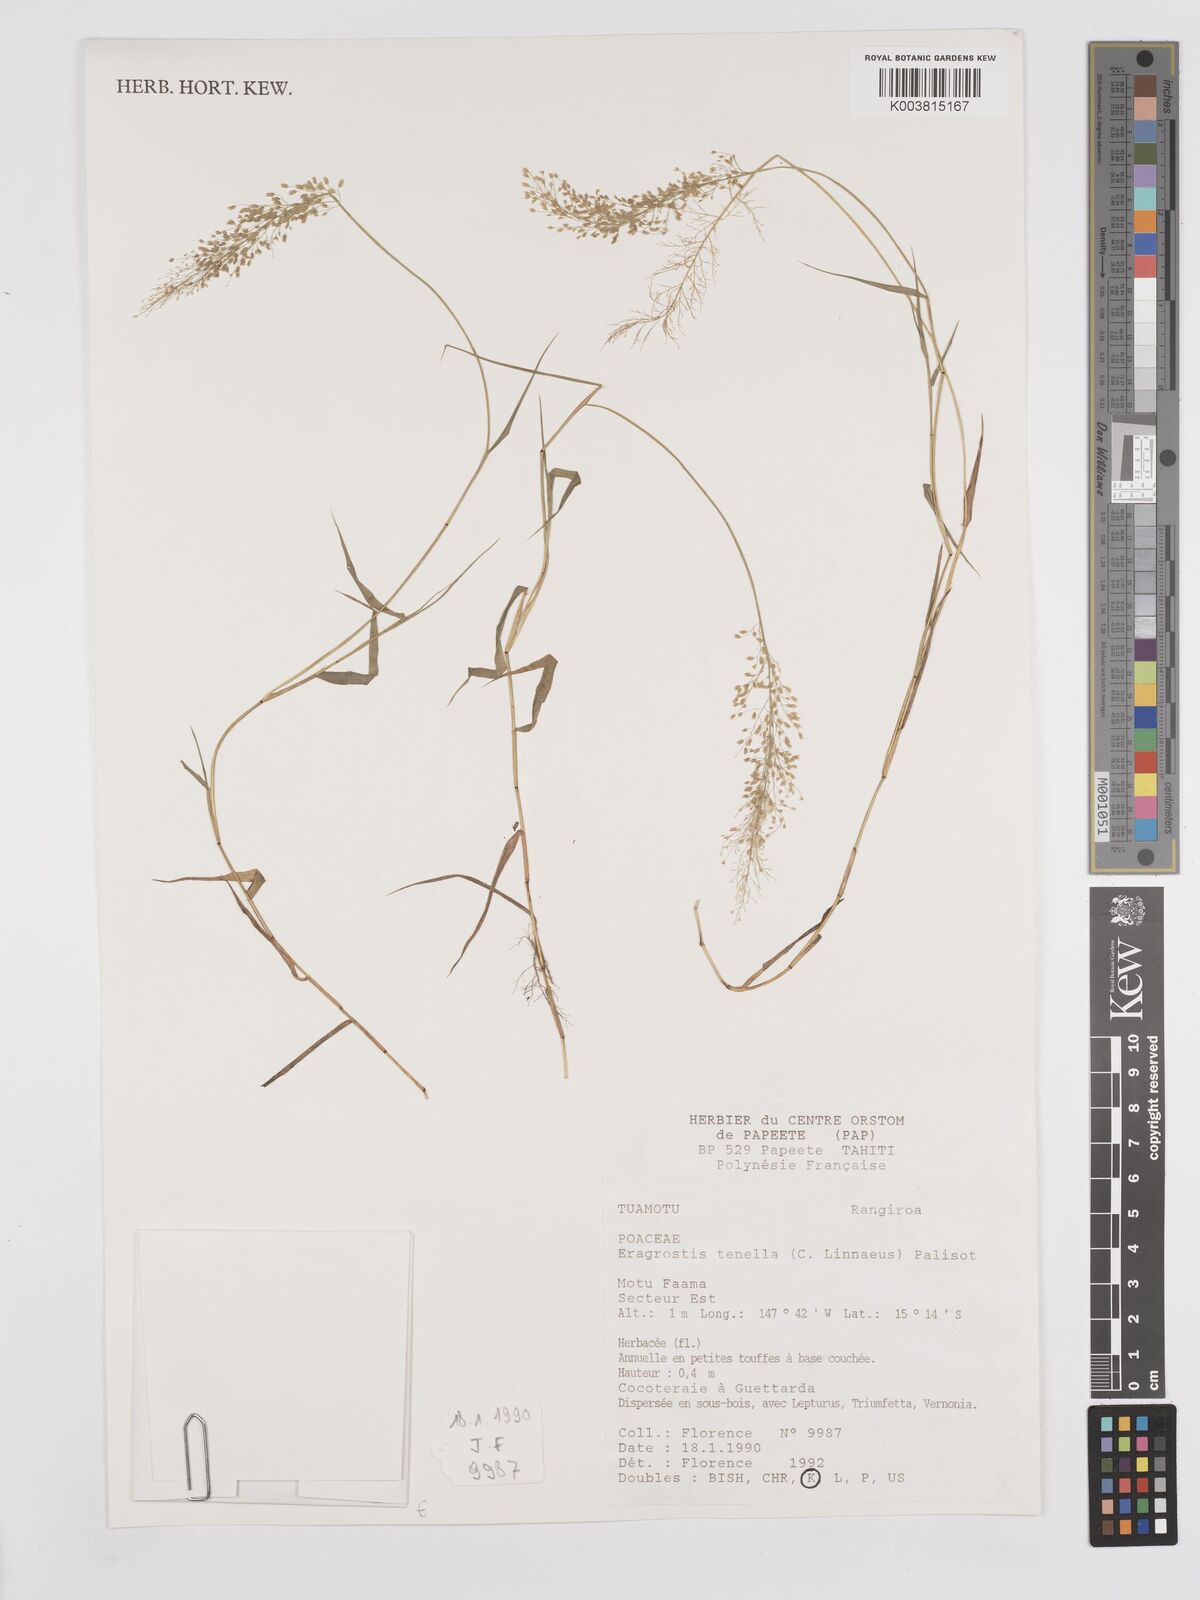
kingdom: Plantae
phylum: Tracheophyta
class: Liliopsida
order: Poales
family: Poaceae
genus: Eragrostis
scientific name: Eragrostis tenella
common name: Japanese lovegrass
